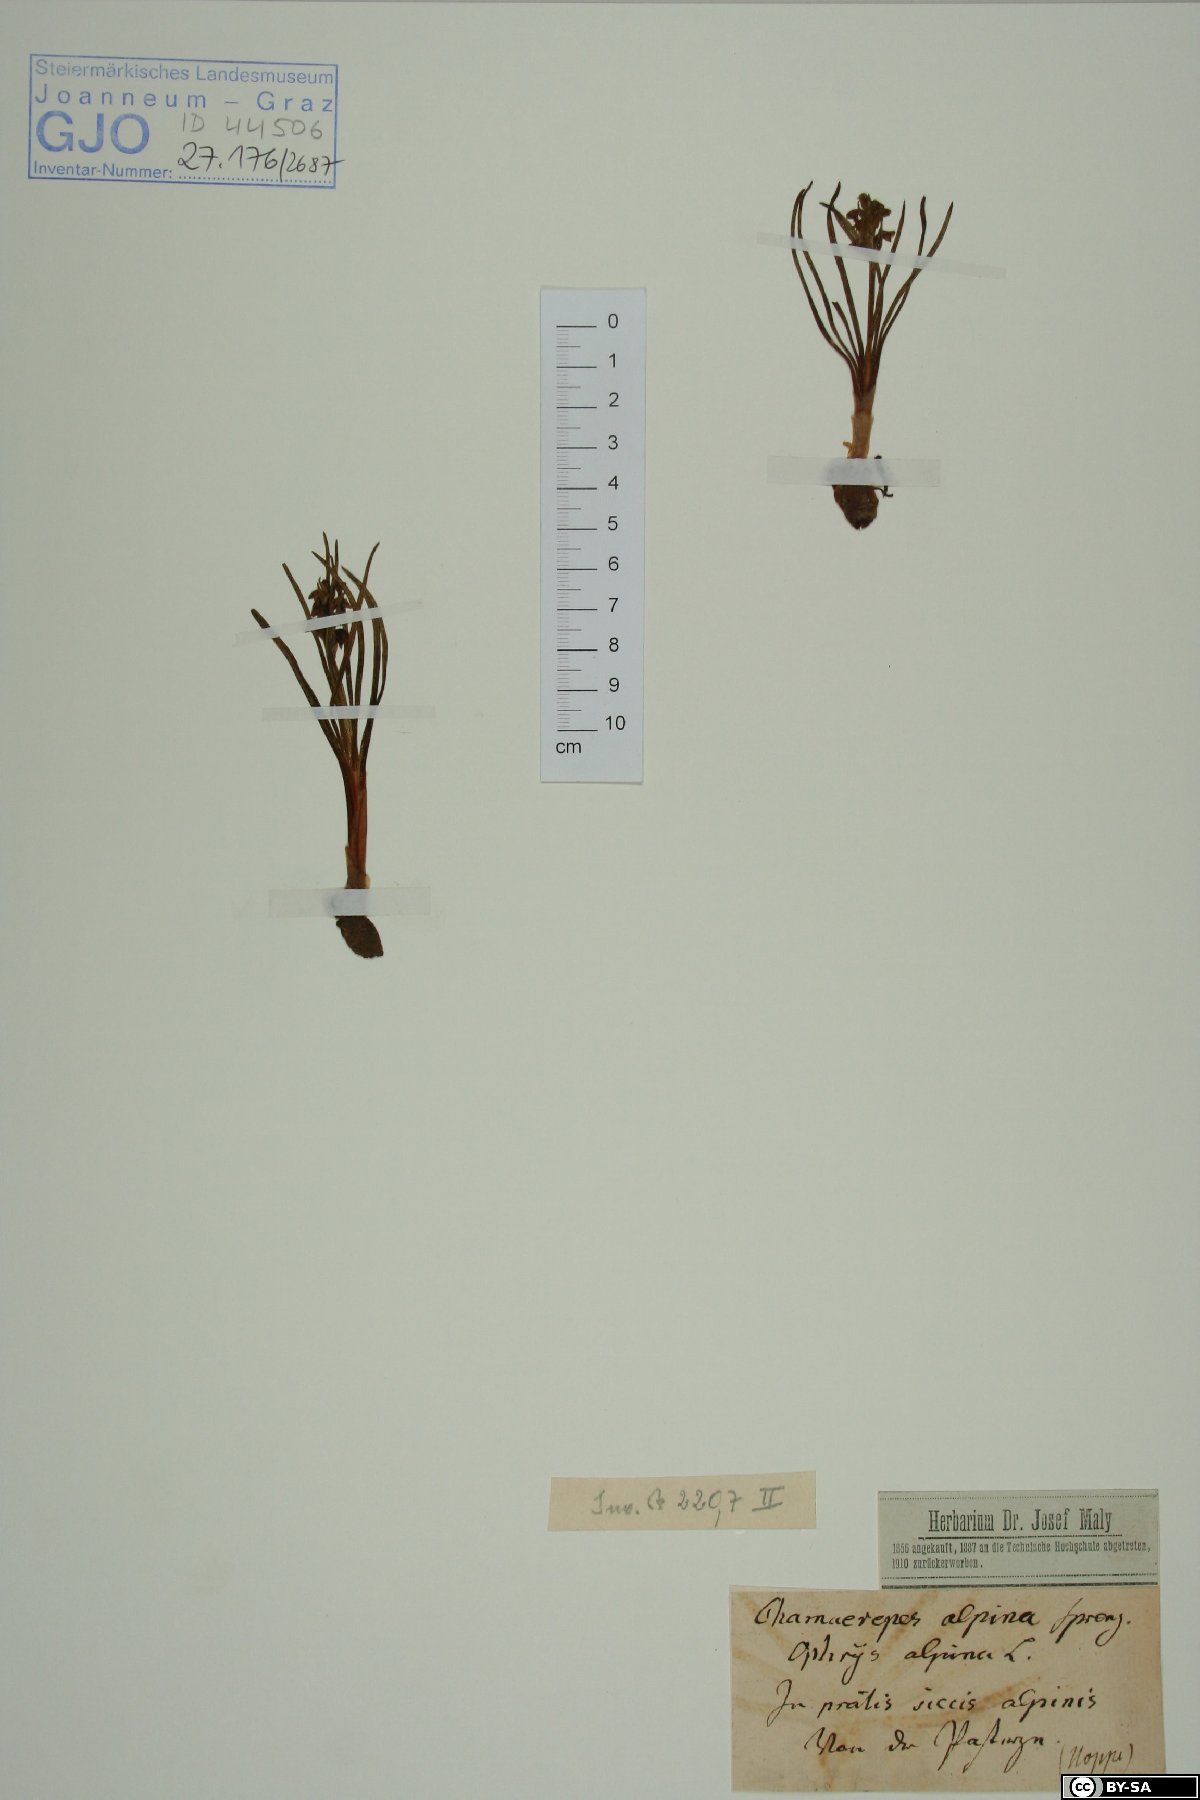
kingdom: Plantae
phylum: Tracheophyta
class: Liliopsida
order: Asparagales
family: Orchidaceae
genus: Chamorchis
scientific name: Chamorchis alpina
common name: Alpine chamorchis
